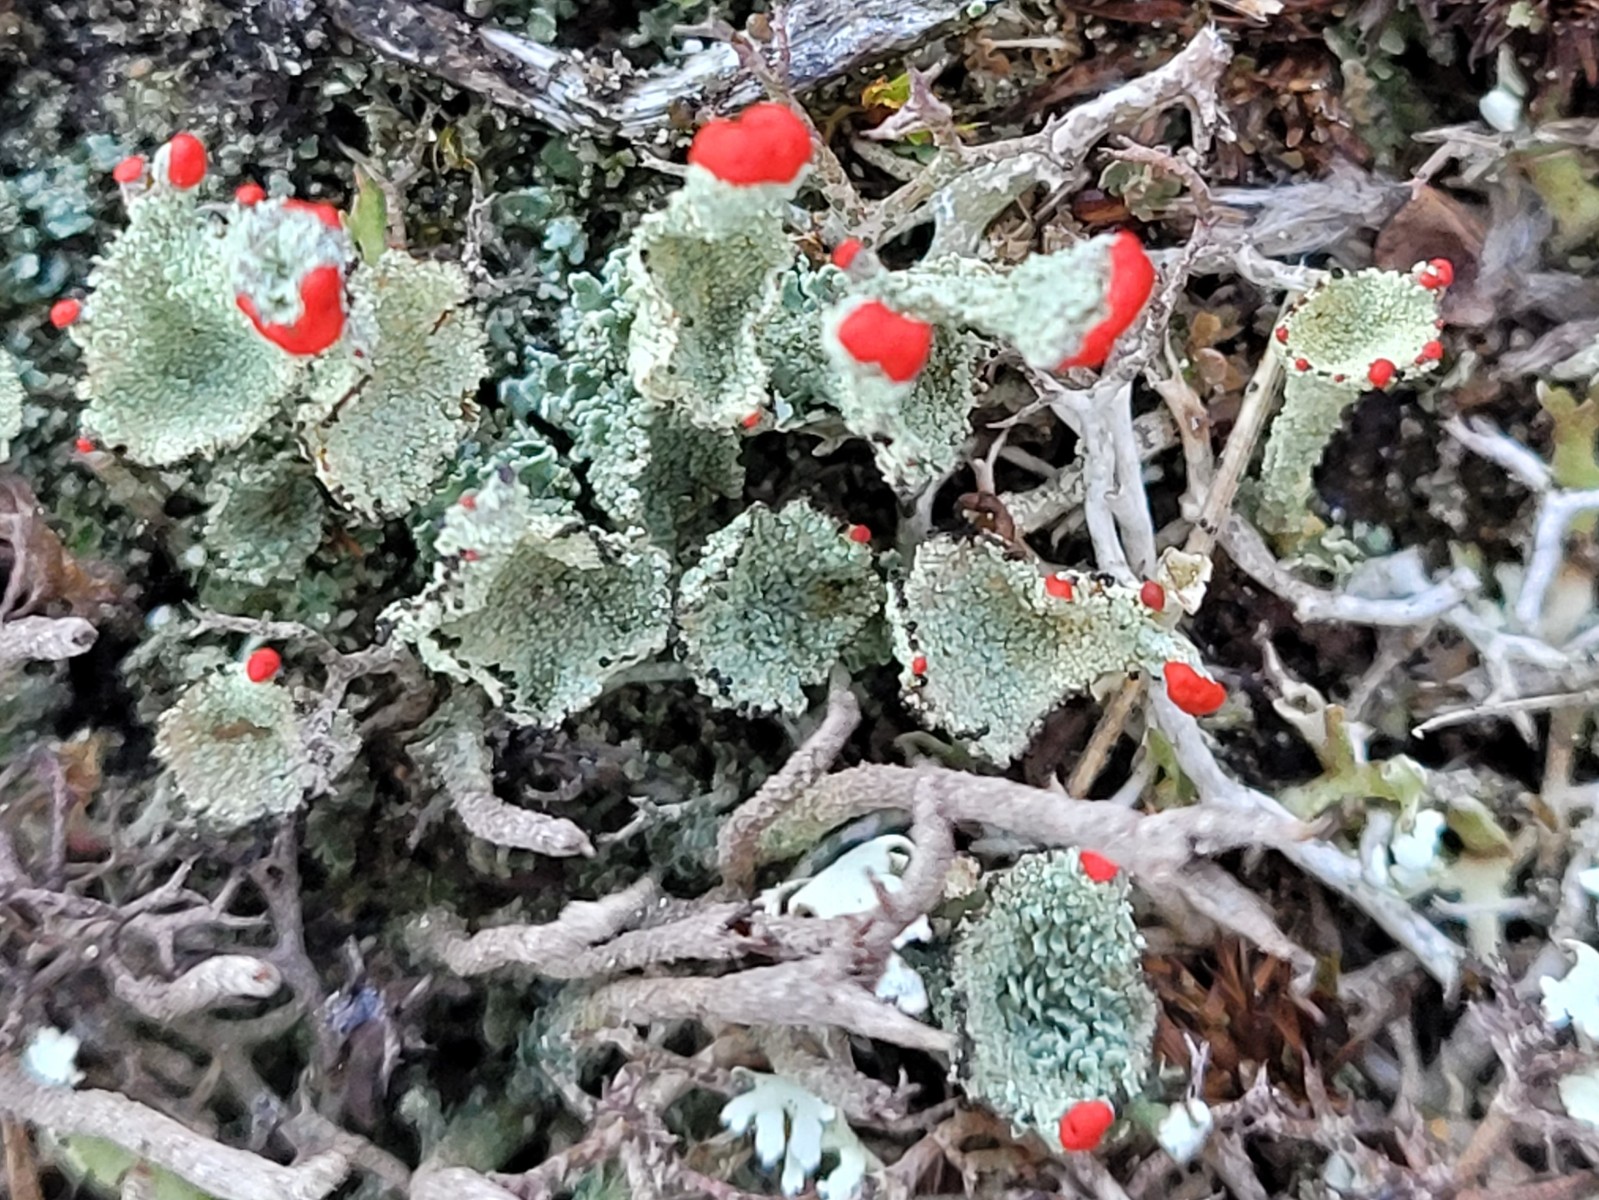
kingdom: Fungi
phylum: Ascomycota
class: Lecanoromycetes
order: Lecanorales
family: Cladoniaceae
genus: Cladonia
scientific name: Cladonia diversa
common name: rød bægerlav
